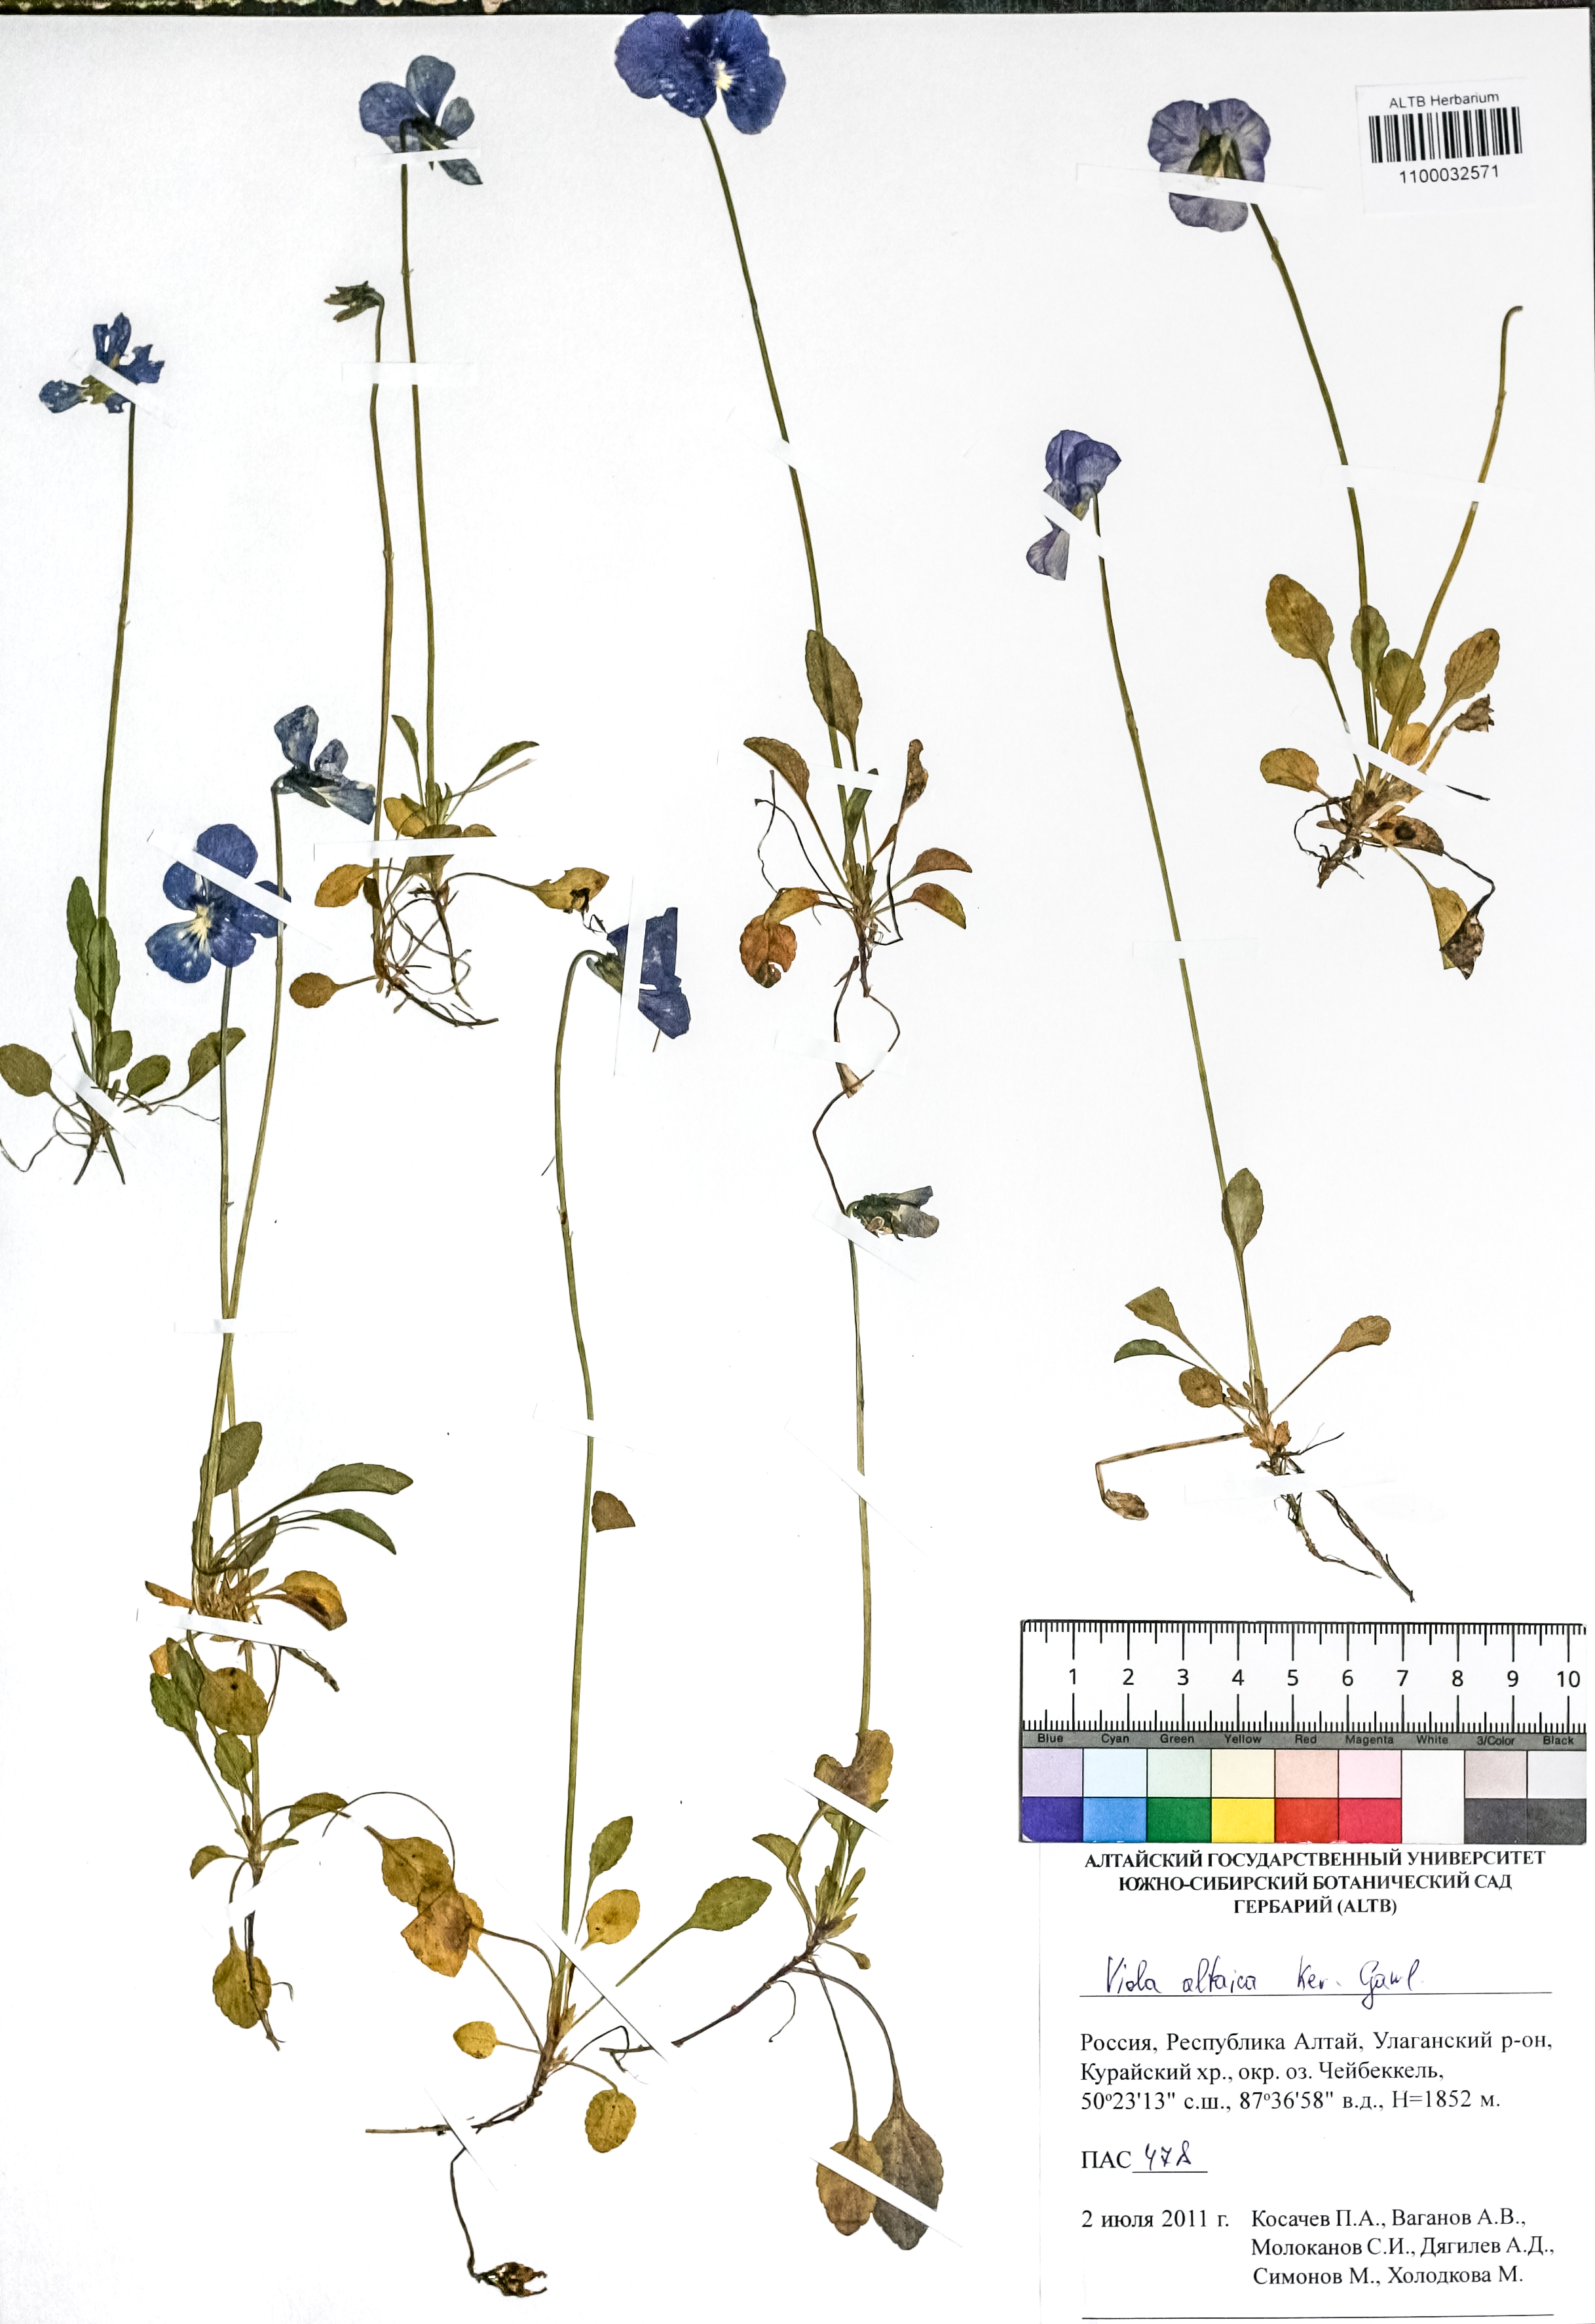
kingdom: Plantae
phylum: Tracheophyta
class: Magnoliopsida
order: Malpighiales
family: Violaceae
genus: Viola
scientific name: Viola altaica
